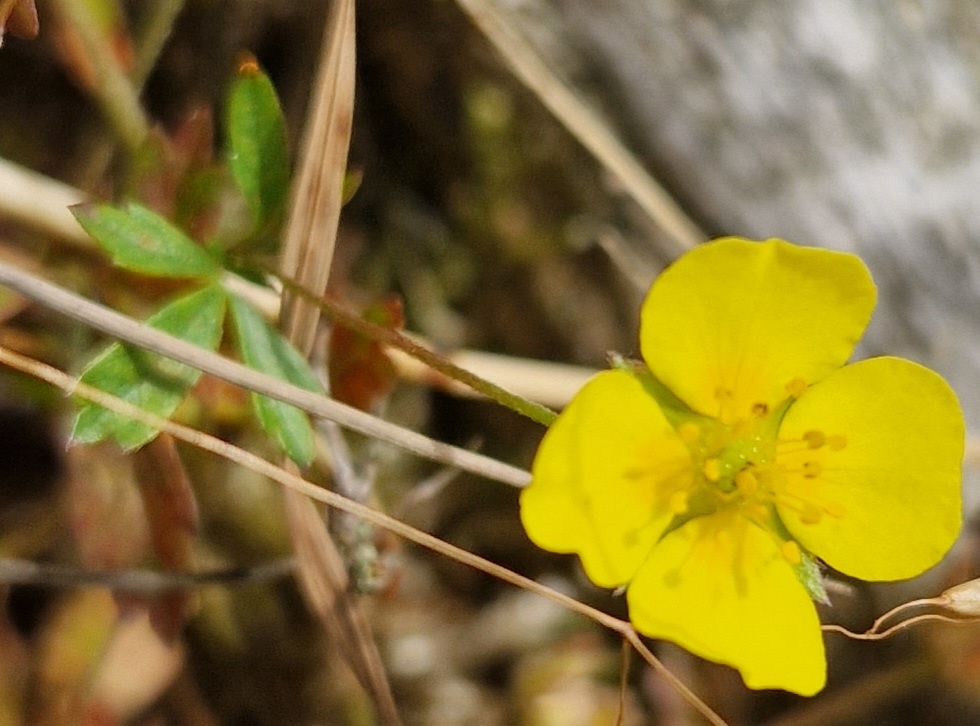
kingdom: Plantae
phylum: Tracheophyta
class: Magnoliopsida
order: Rosales
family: Rosaceae
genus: Potentilla
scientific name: Potentilla
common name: Liggende potentil × krybende potentil
